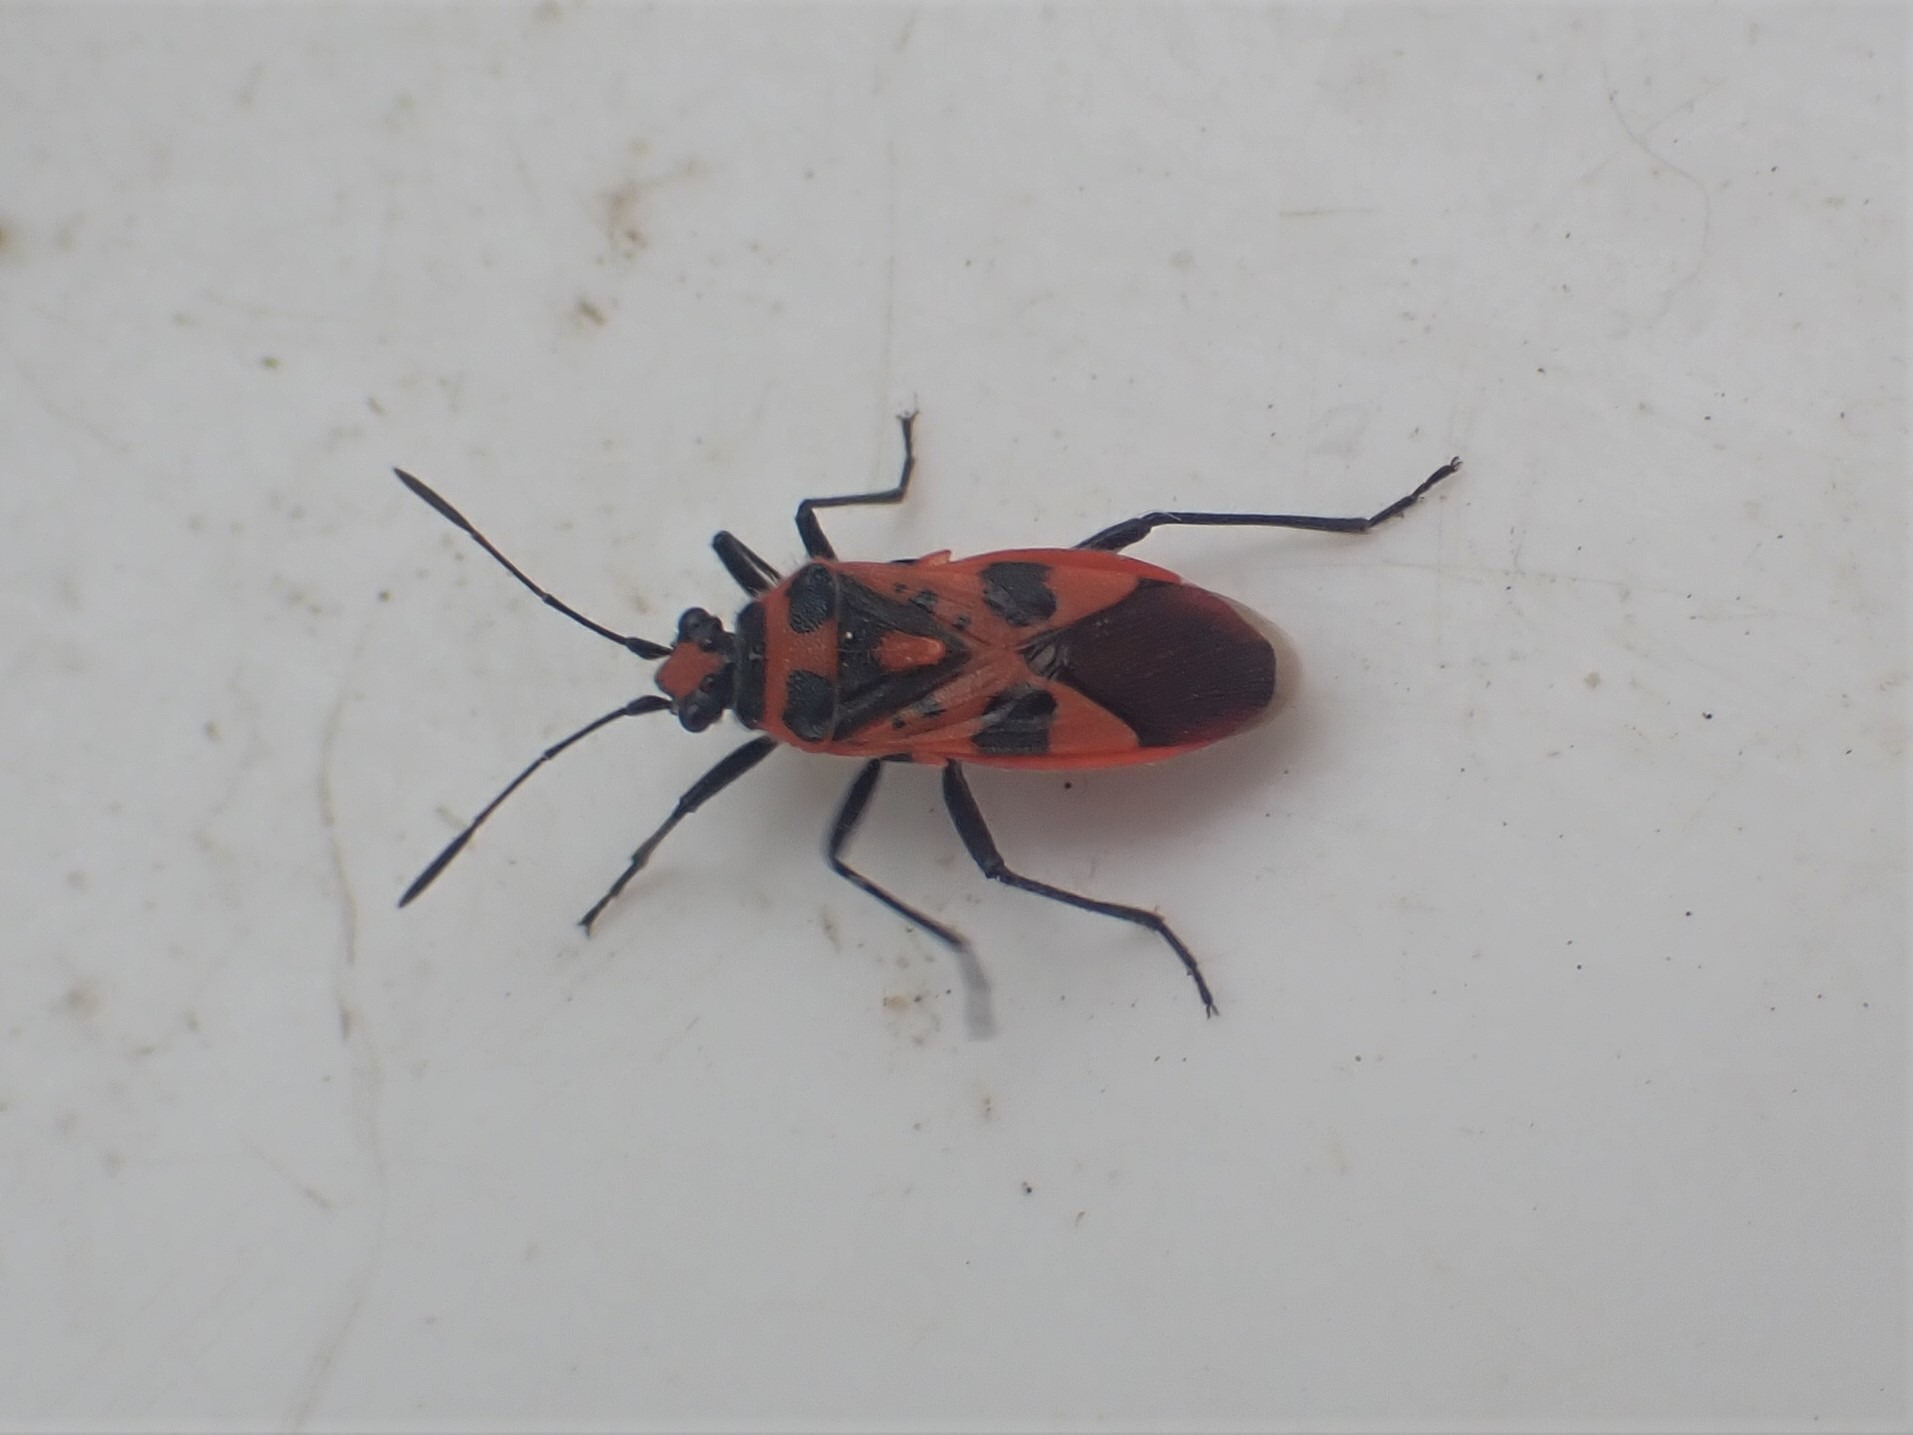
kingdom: Animalia
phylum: Arthropoda
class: Insecta
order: Hemiptera
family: Rhopalidae
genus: Corizus
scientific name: Corizus hyoscyami
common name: Rød kanttæge
